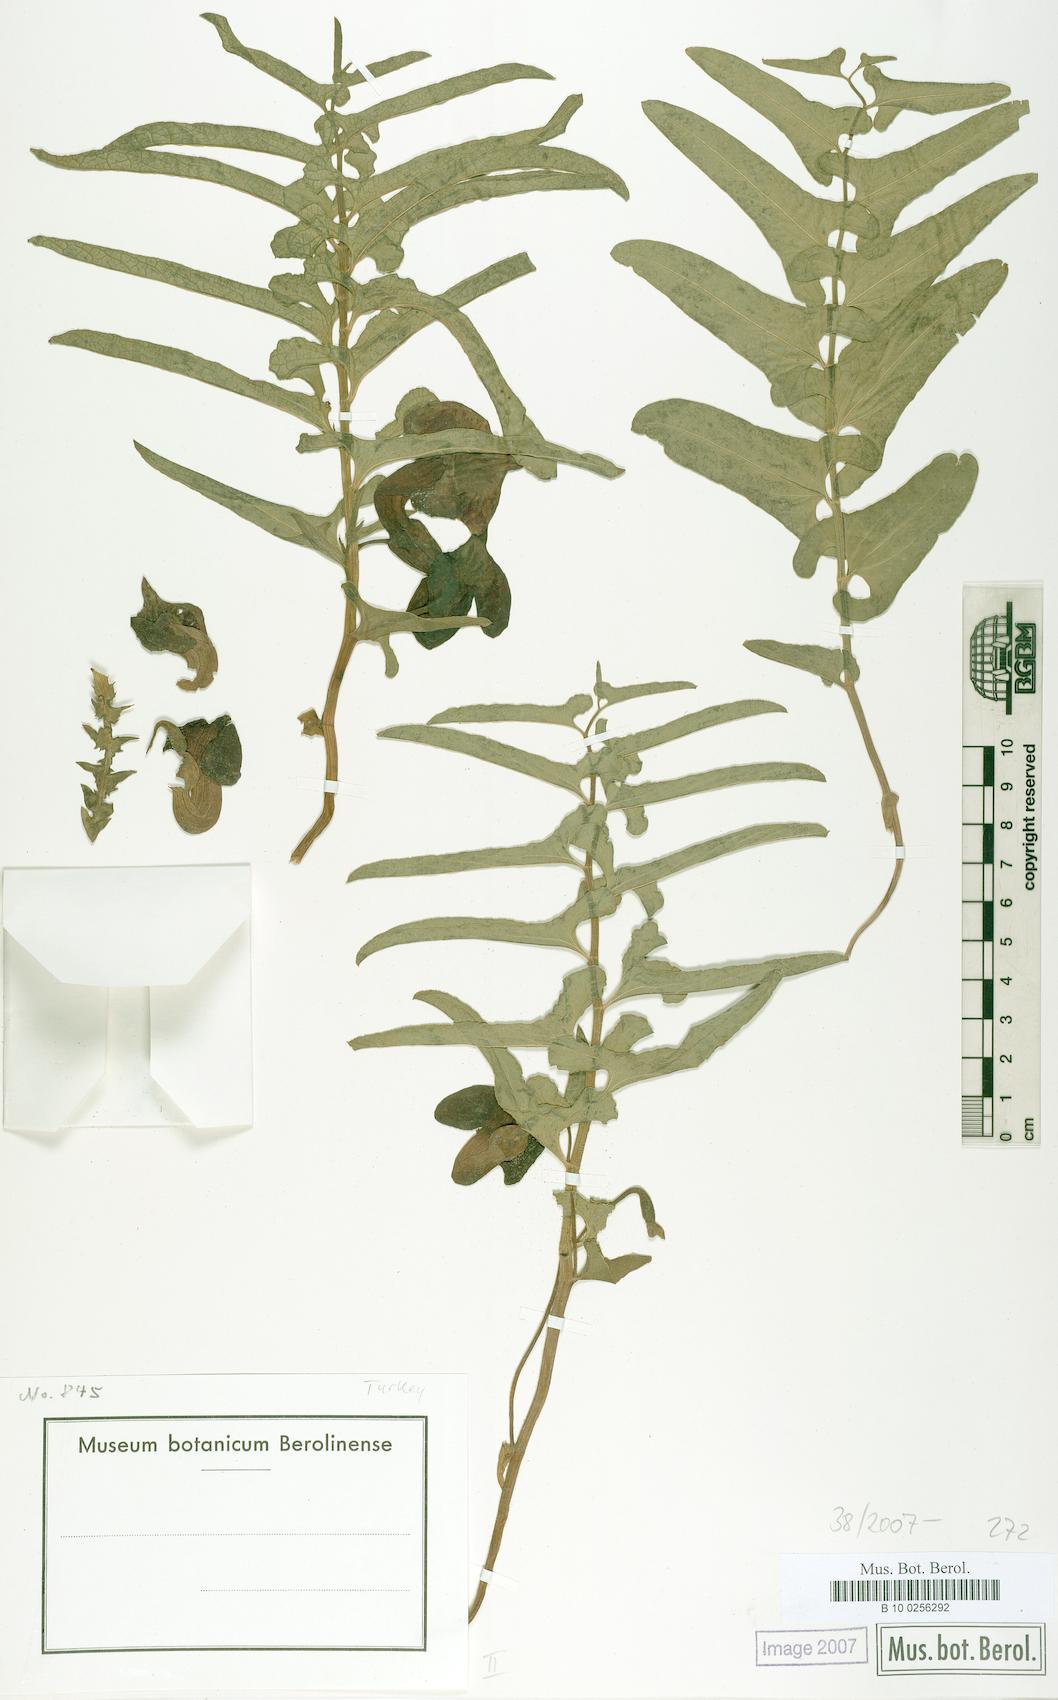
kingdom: Plantae
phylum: Tracheophyta
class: Magnoliopsida
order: Piperales
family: Aristolochiaceae
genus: Aristolochia
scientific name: Aristolochia maurorum
